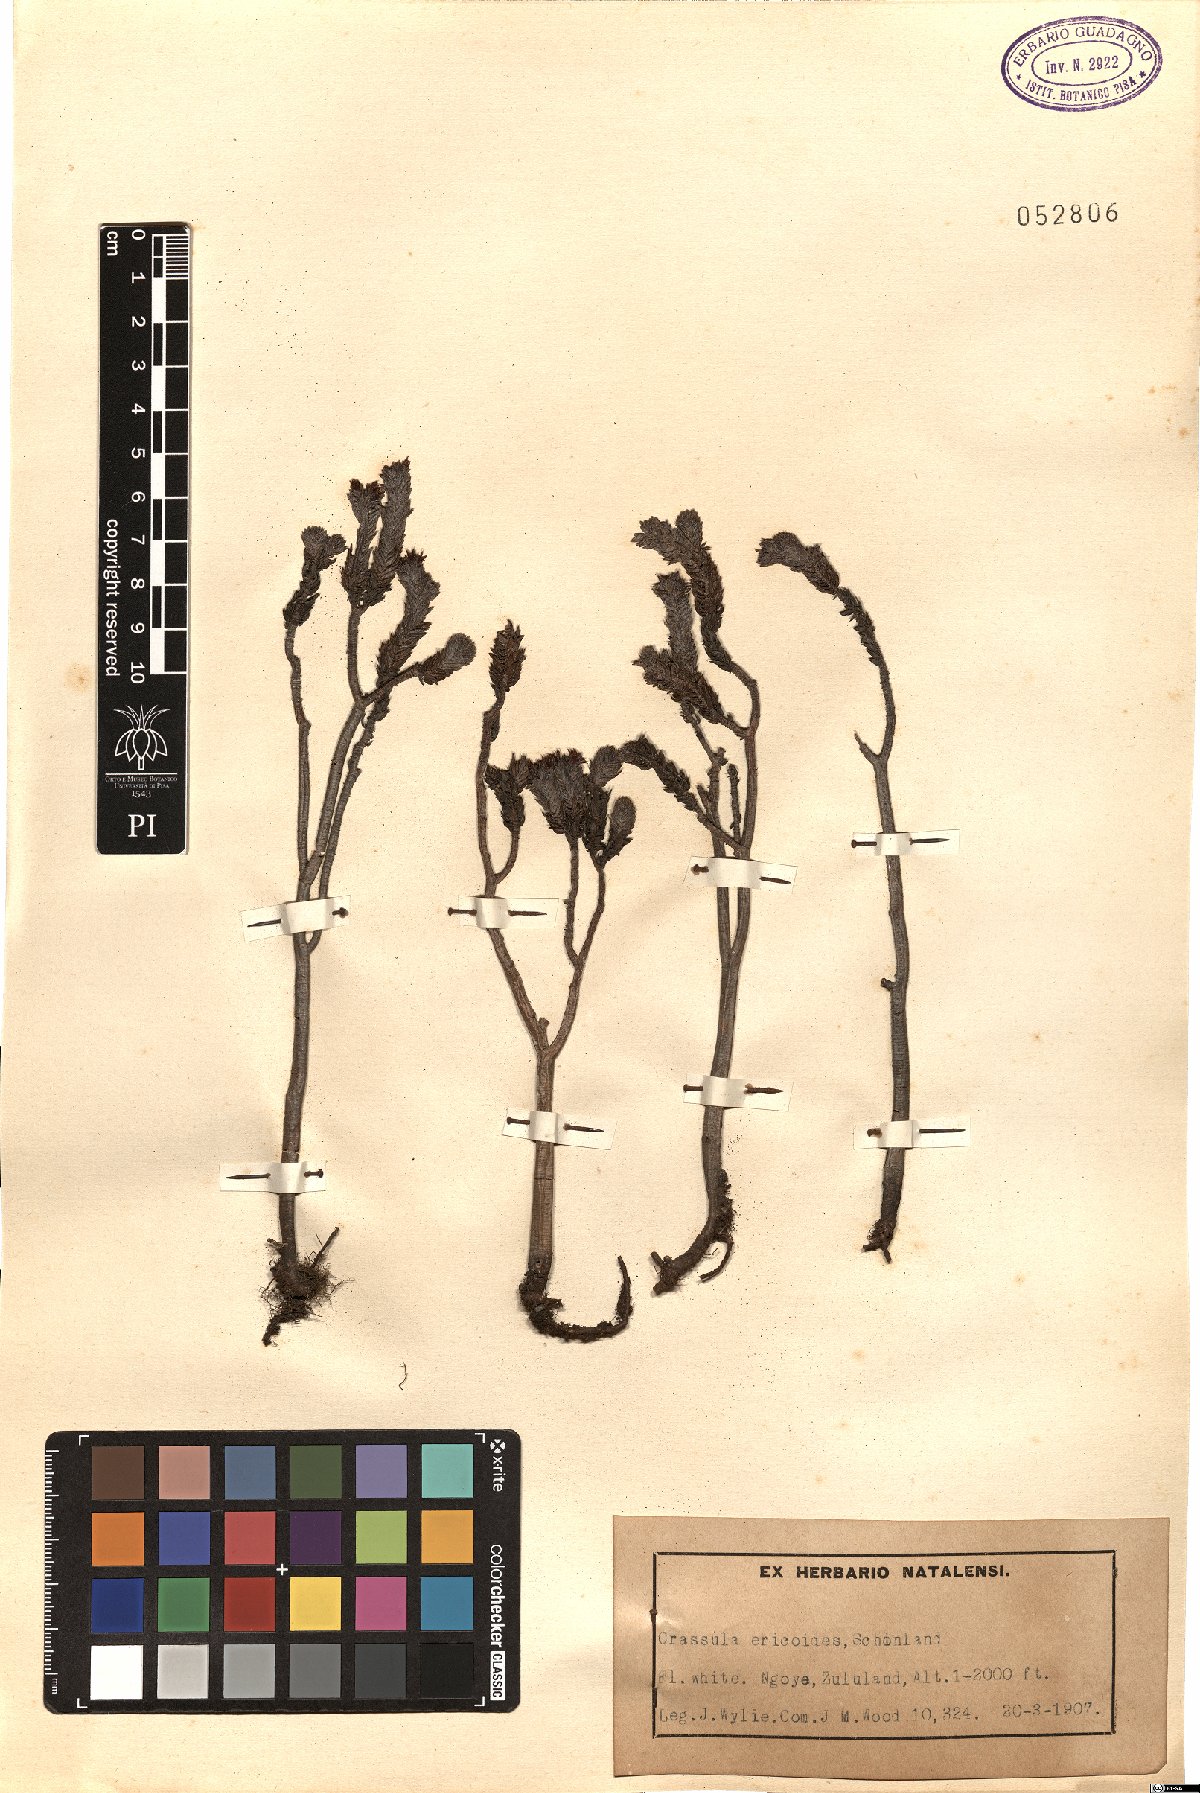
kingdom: Plantae
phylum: Tracheophyta
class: Magnoliopsida
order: Saxifragales
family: Crassulaceae
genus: Crassula
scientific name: Crassula ericoides
